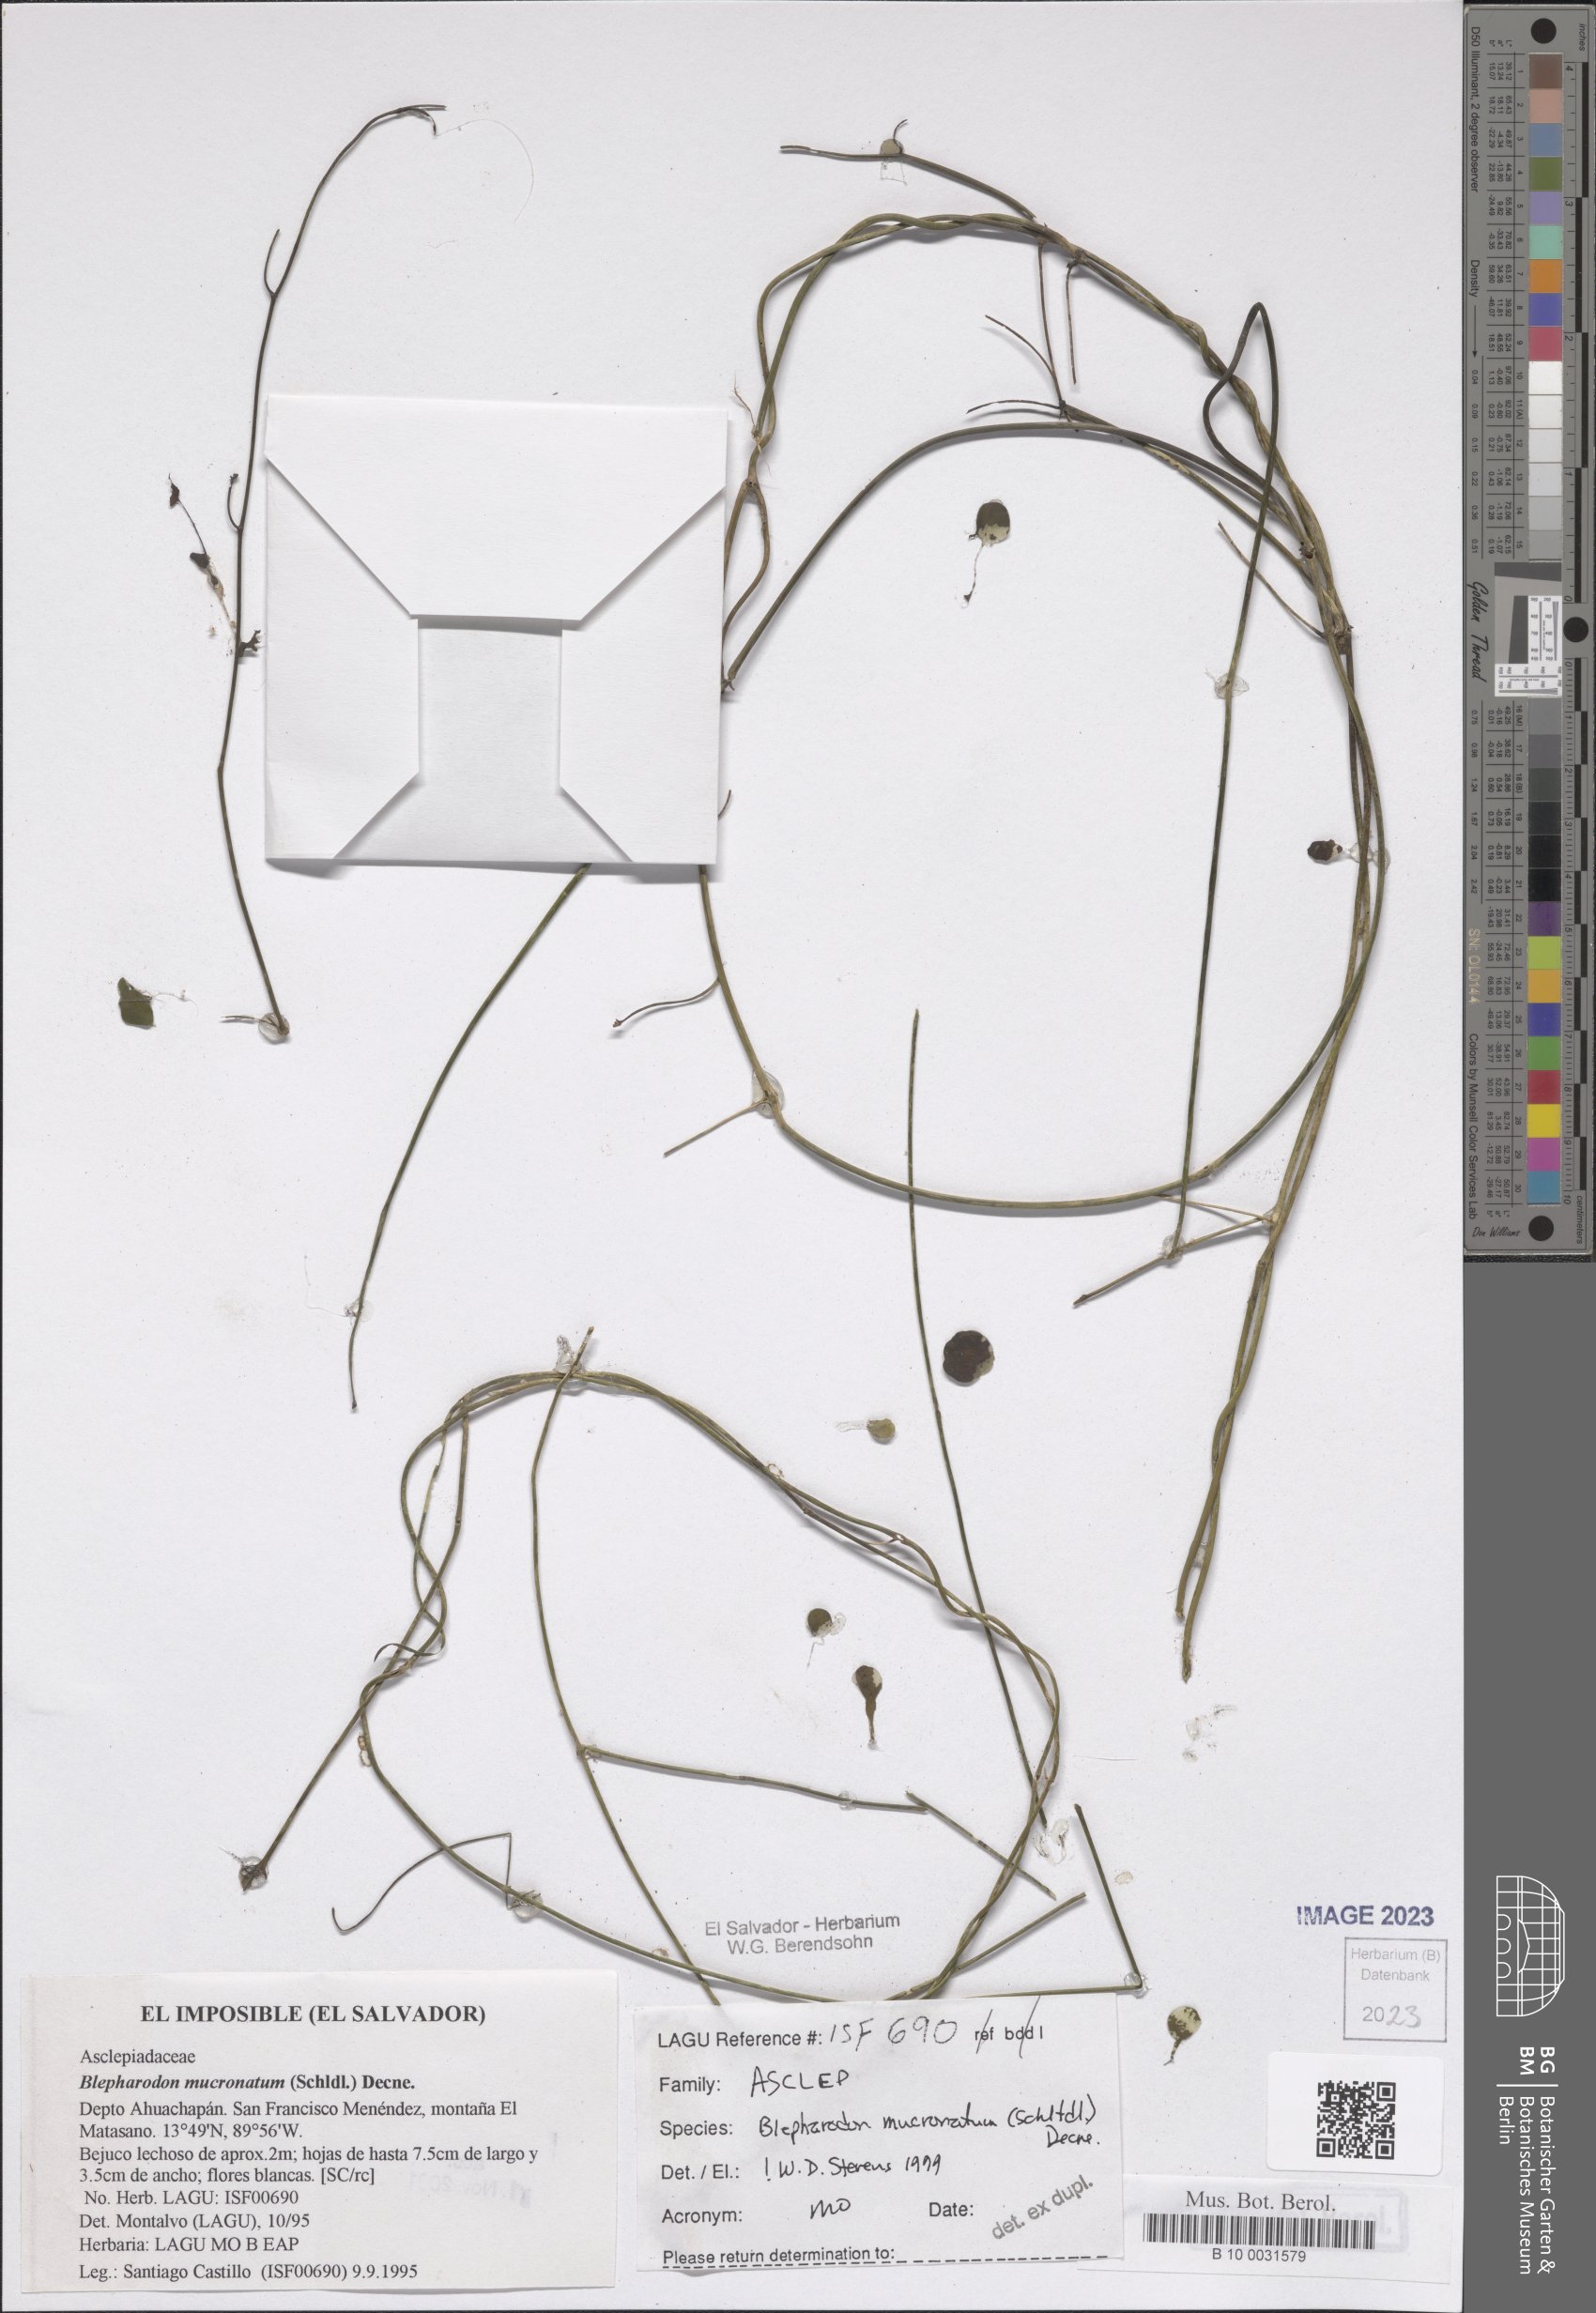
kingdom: Plantae
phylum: Tracheophyta
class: Magnoliopsida
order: Gentianales
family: Apocynaceae
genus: Vailia
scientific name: Vailia anomala
